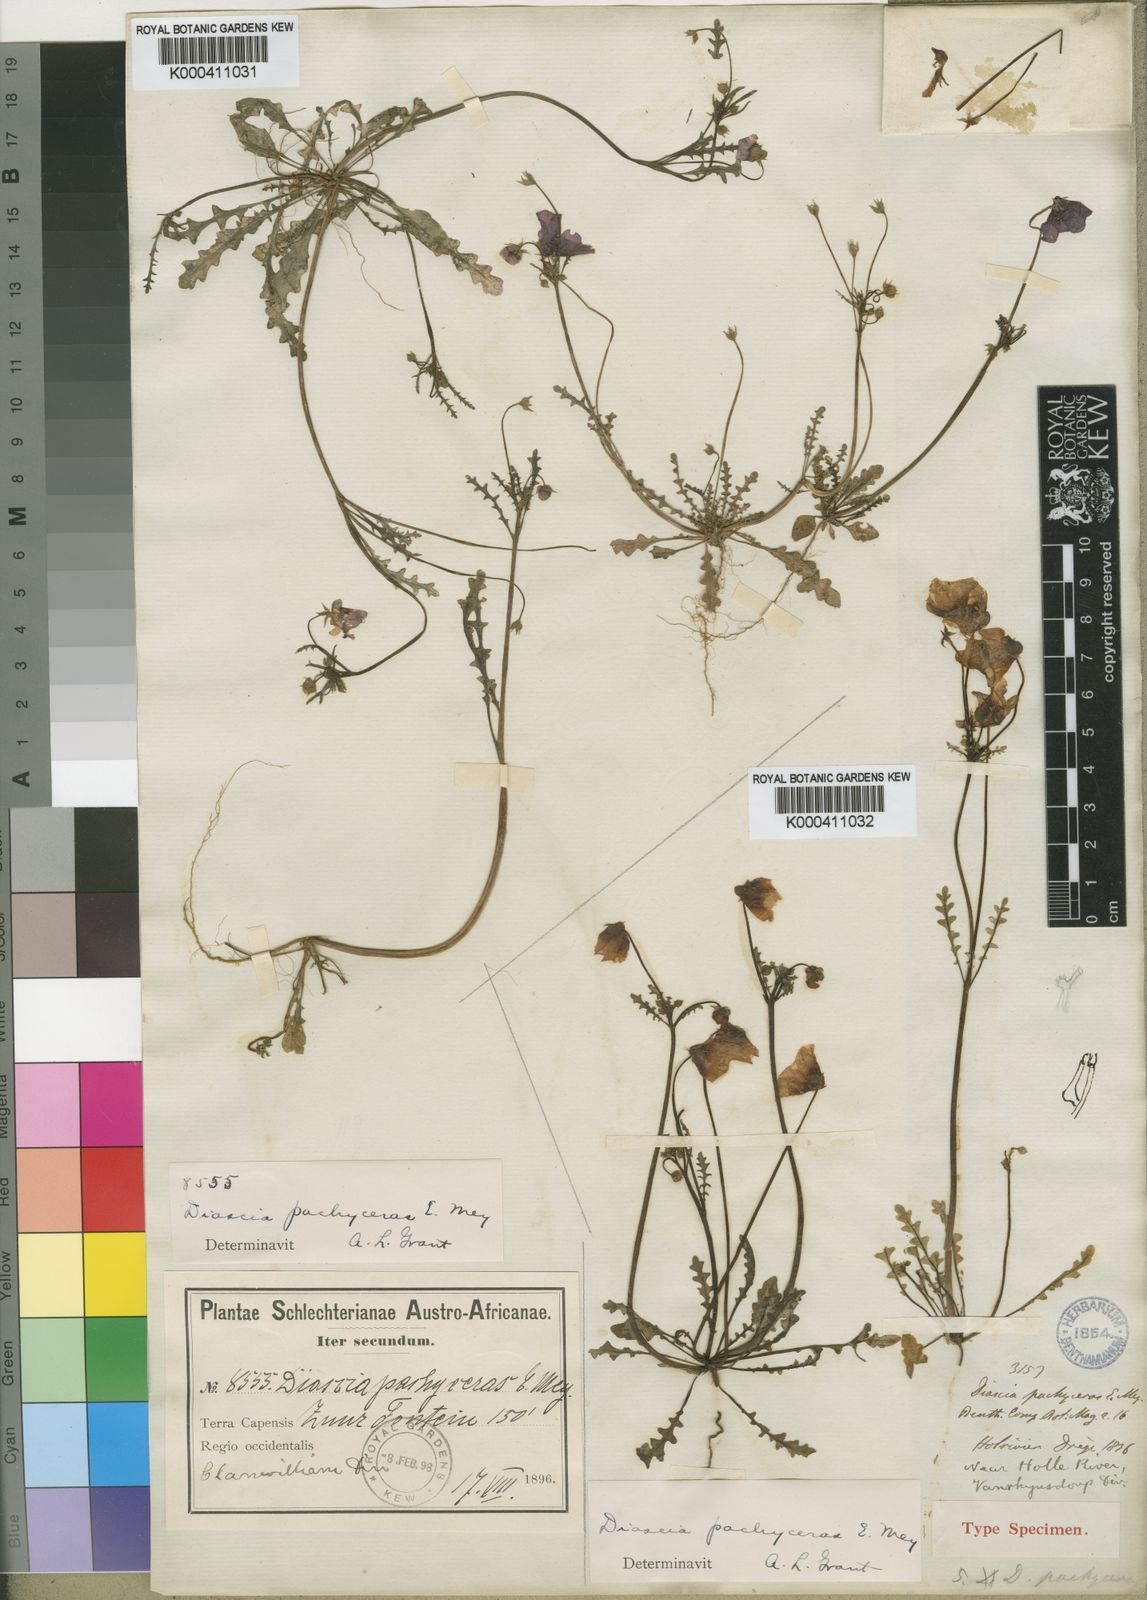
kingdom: Plantae
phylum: Tracheophyta
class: Magnoliopsida
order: Lamiales
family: Scrophulariaceae
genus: Diascia
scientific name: Diascia pachyceras
